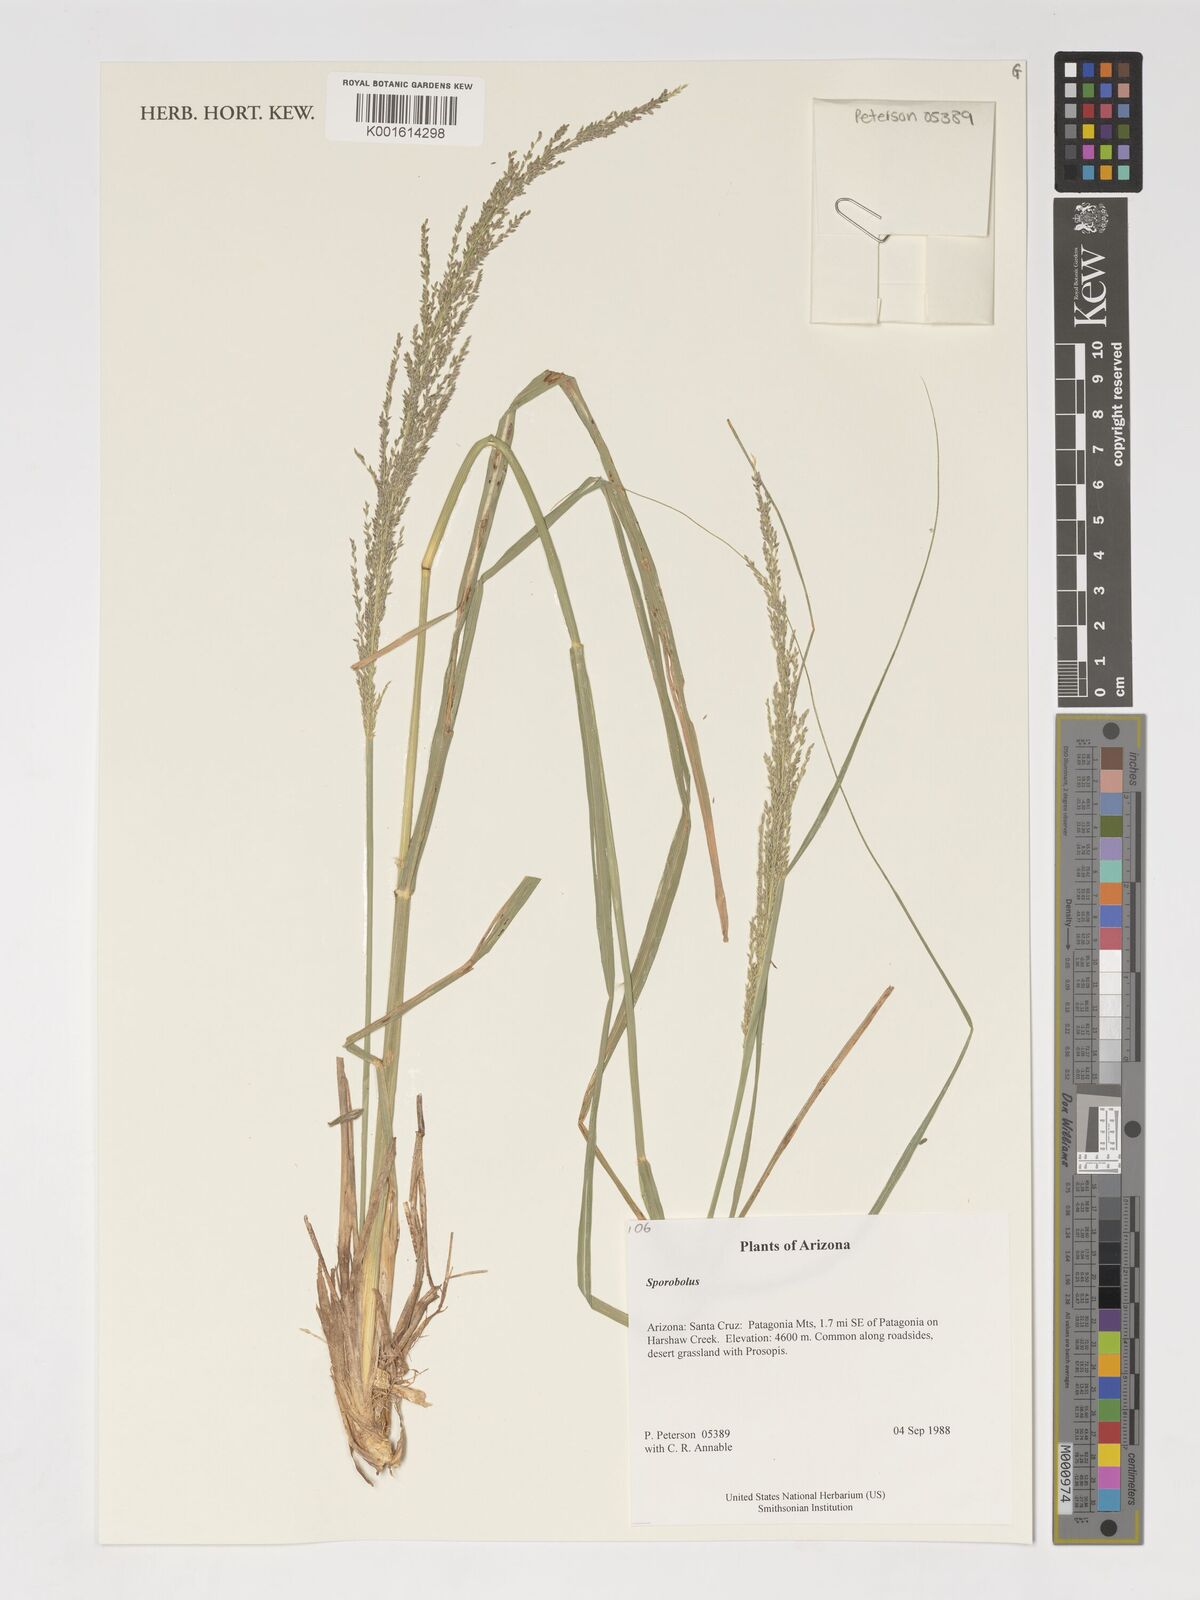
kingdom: Plantae
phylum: Tracheophyta
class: Liliopsida
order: Poales
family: Poaceae
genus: Sporobolus
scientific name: Sporobolus
